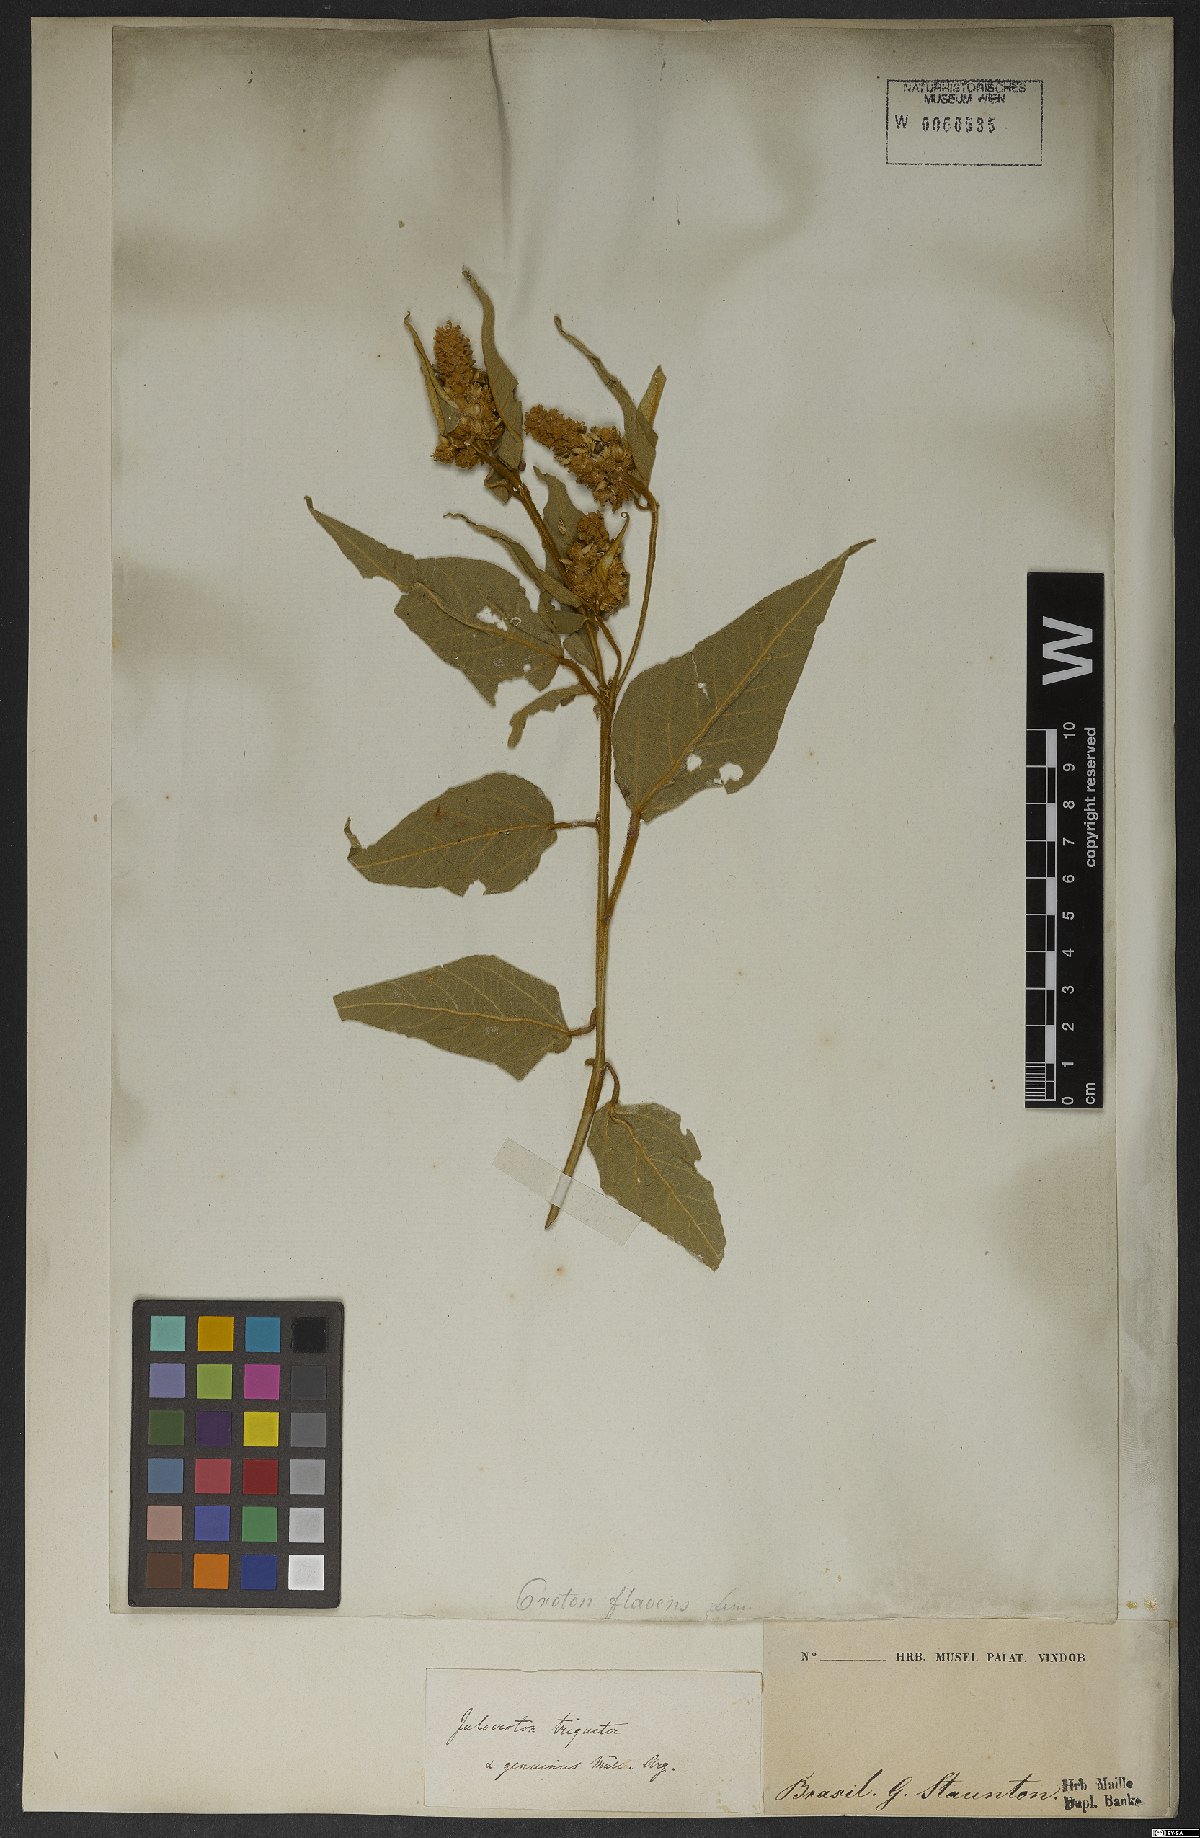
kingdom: Plantae
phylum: Tracheophyta
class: Magnoliopsida
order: Malpighiales
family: Euphorbiaceae
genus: Croton
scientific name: Croton triqueter
